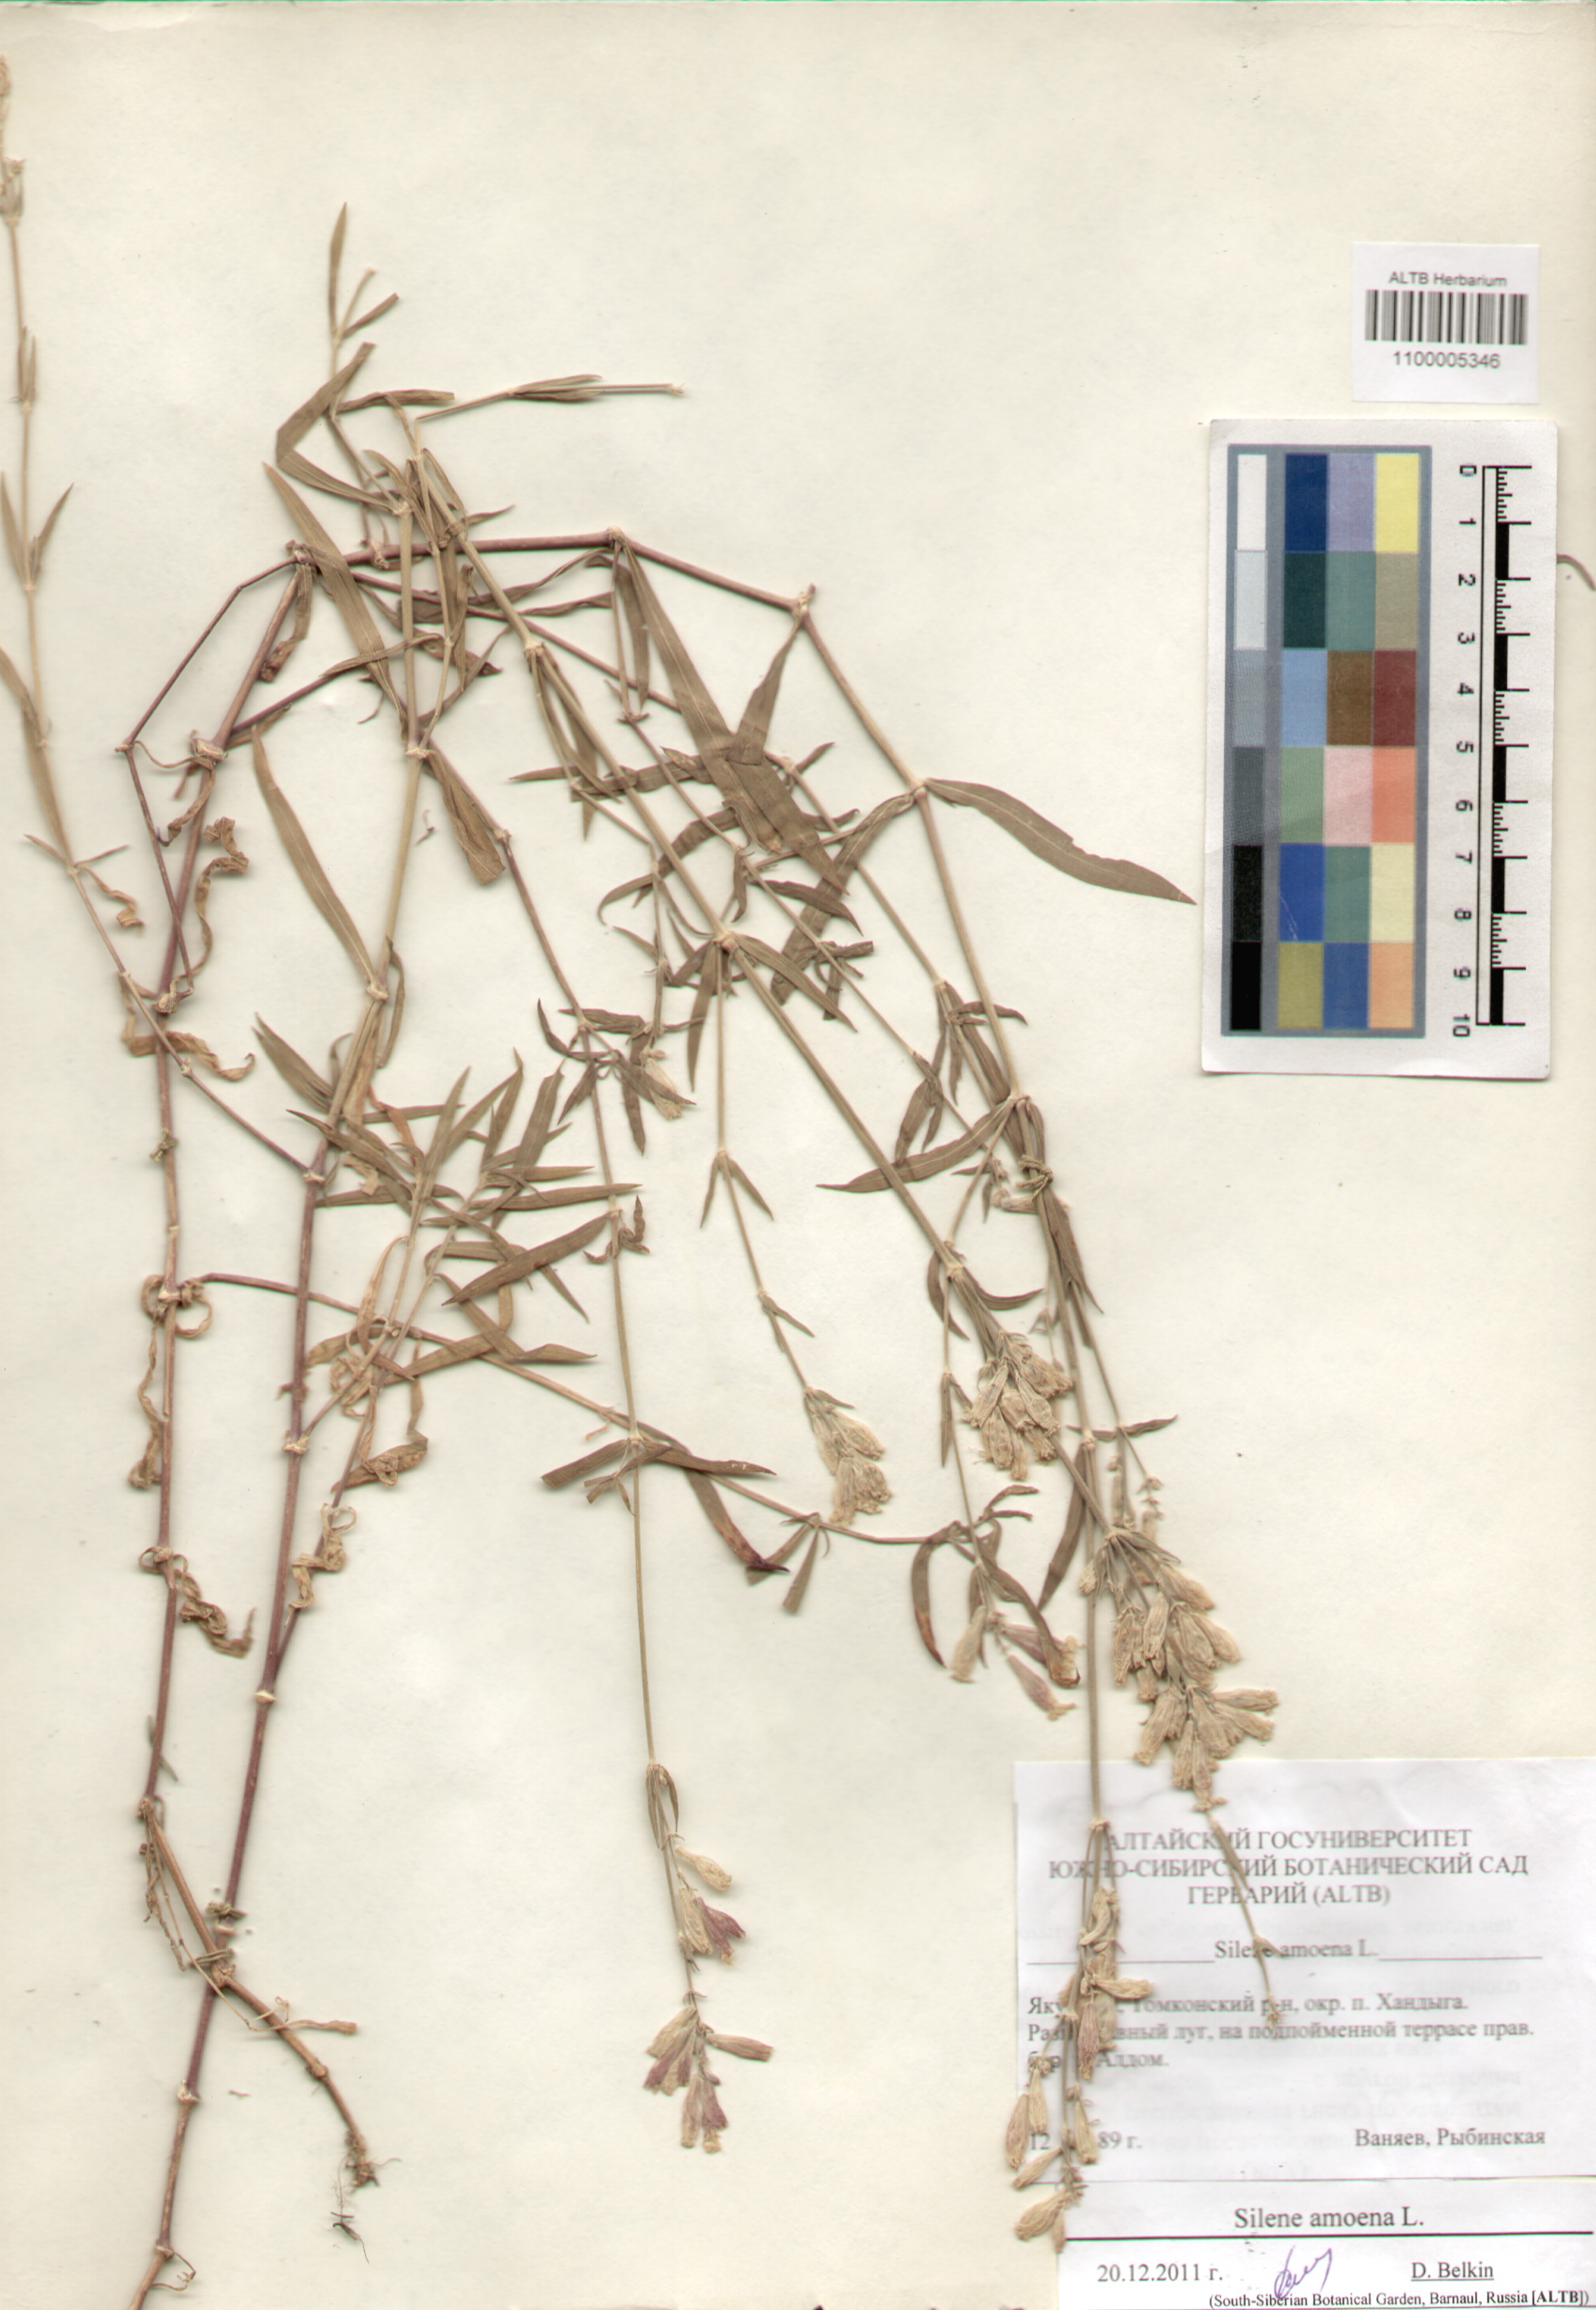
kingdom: Plantae
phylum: Tracheophyta
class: Magnoliopsida
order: Caryophyllales
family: Caryophyllaceae
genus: Silene
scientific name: Silene amoena
